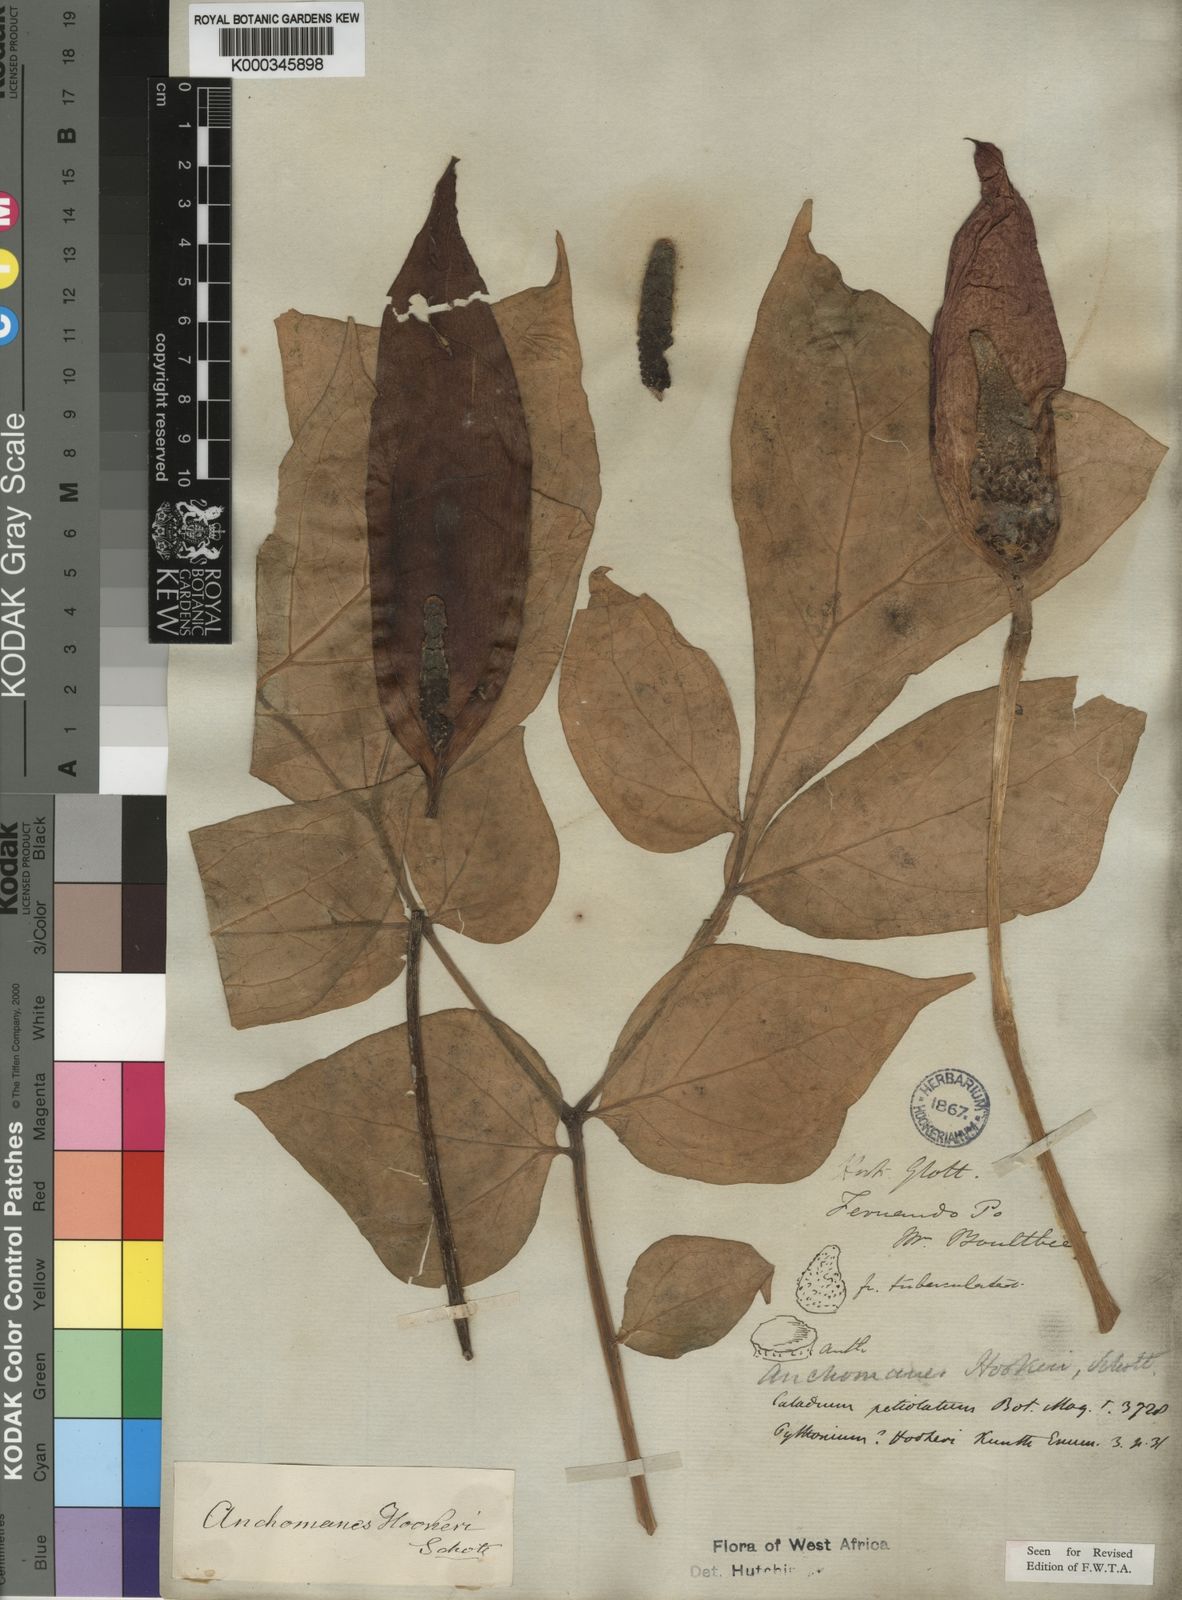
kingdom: Plantae
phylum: Tracheophyta
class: Liliopsida
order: Alismatales
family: Araceae
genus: Anchomanes
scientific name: Anchomanes difformis
